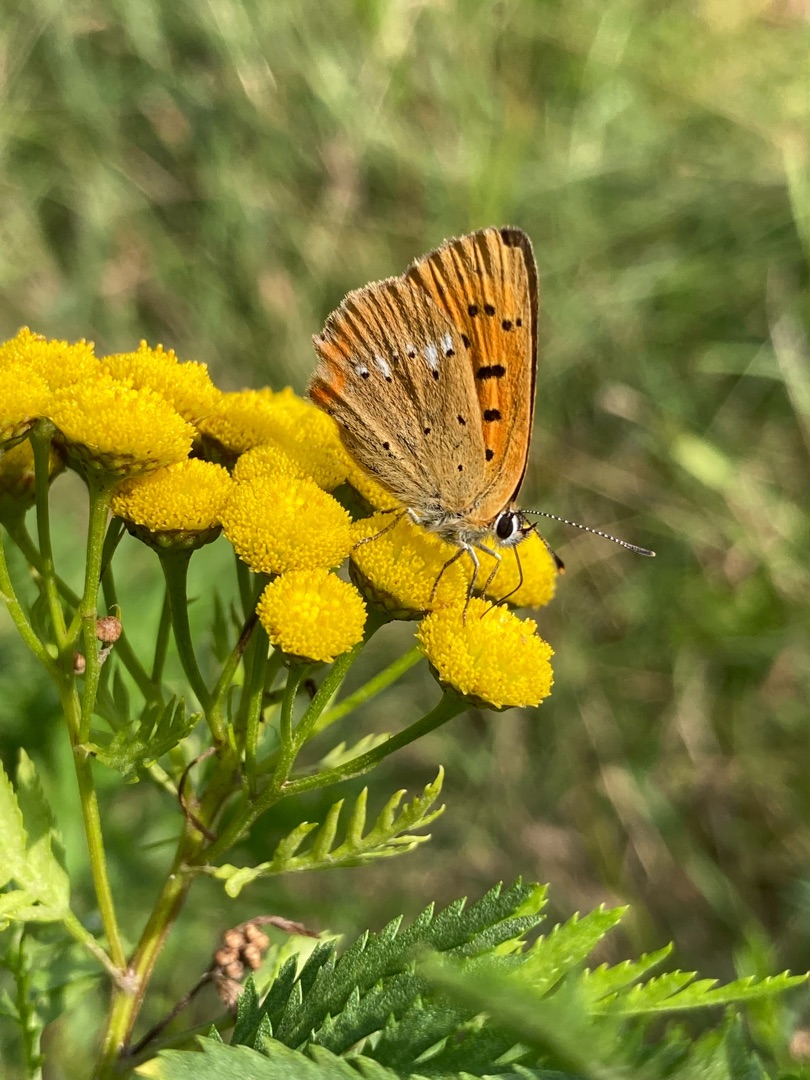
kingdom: Animalia
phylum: Arthropoda
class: Insecta
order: Lepidoptera
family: Lycaenidae
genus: Lycaena
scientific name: Lycaena virgaureae
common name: Dukatsommerfugl
